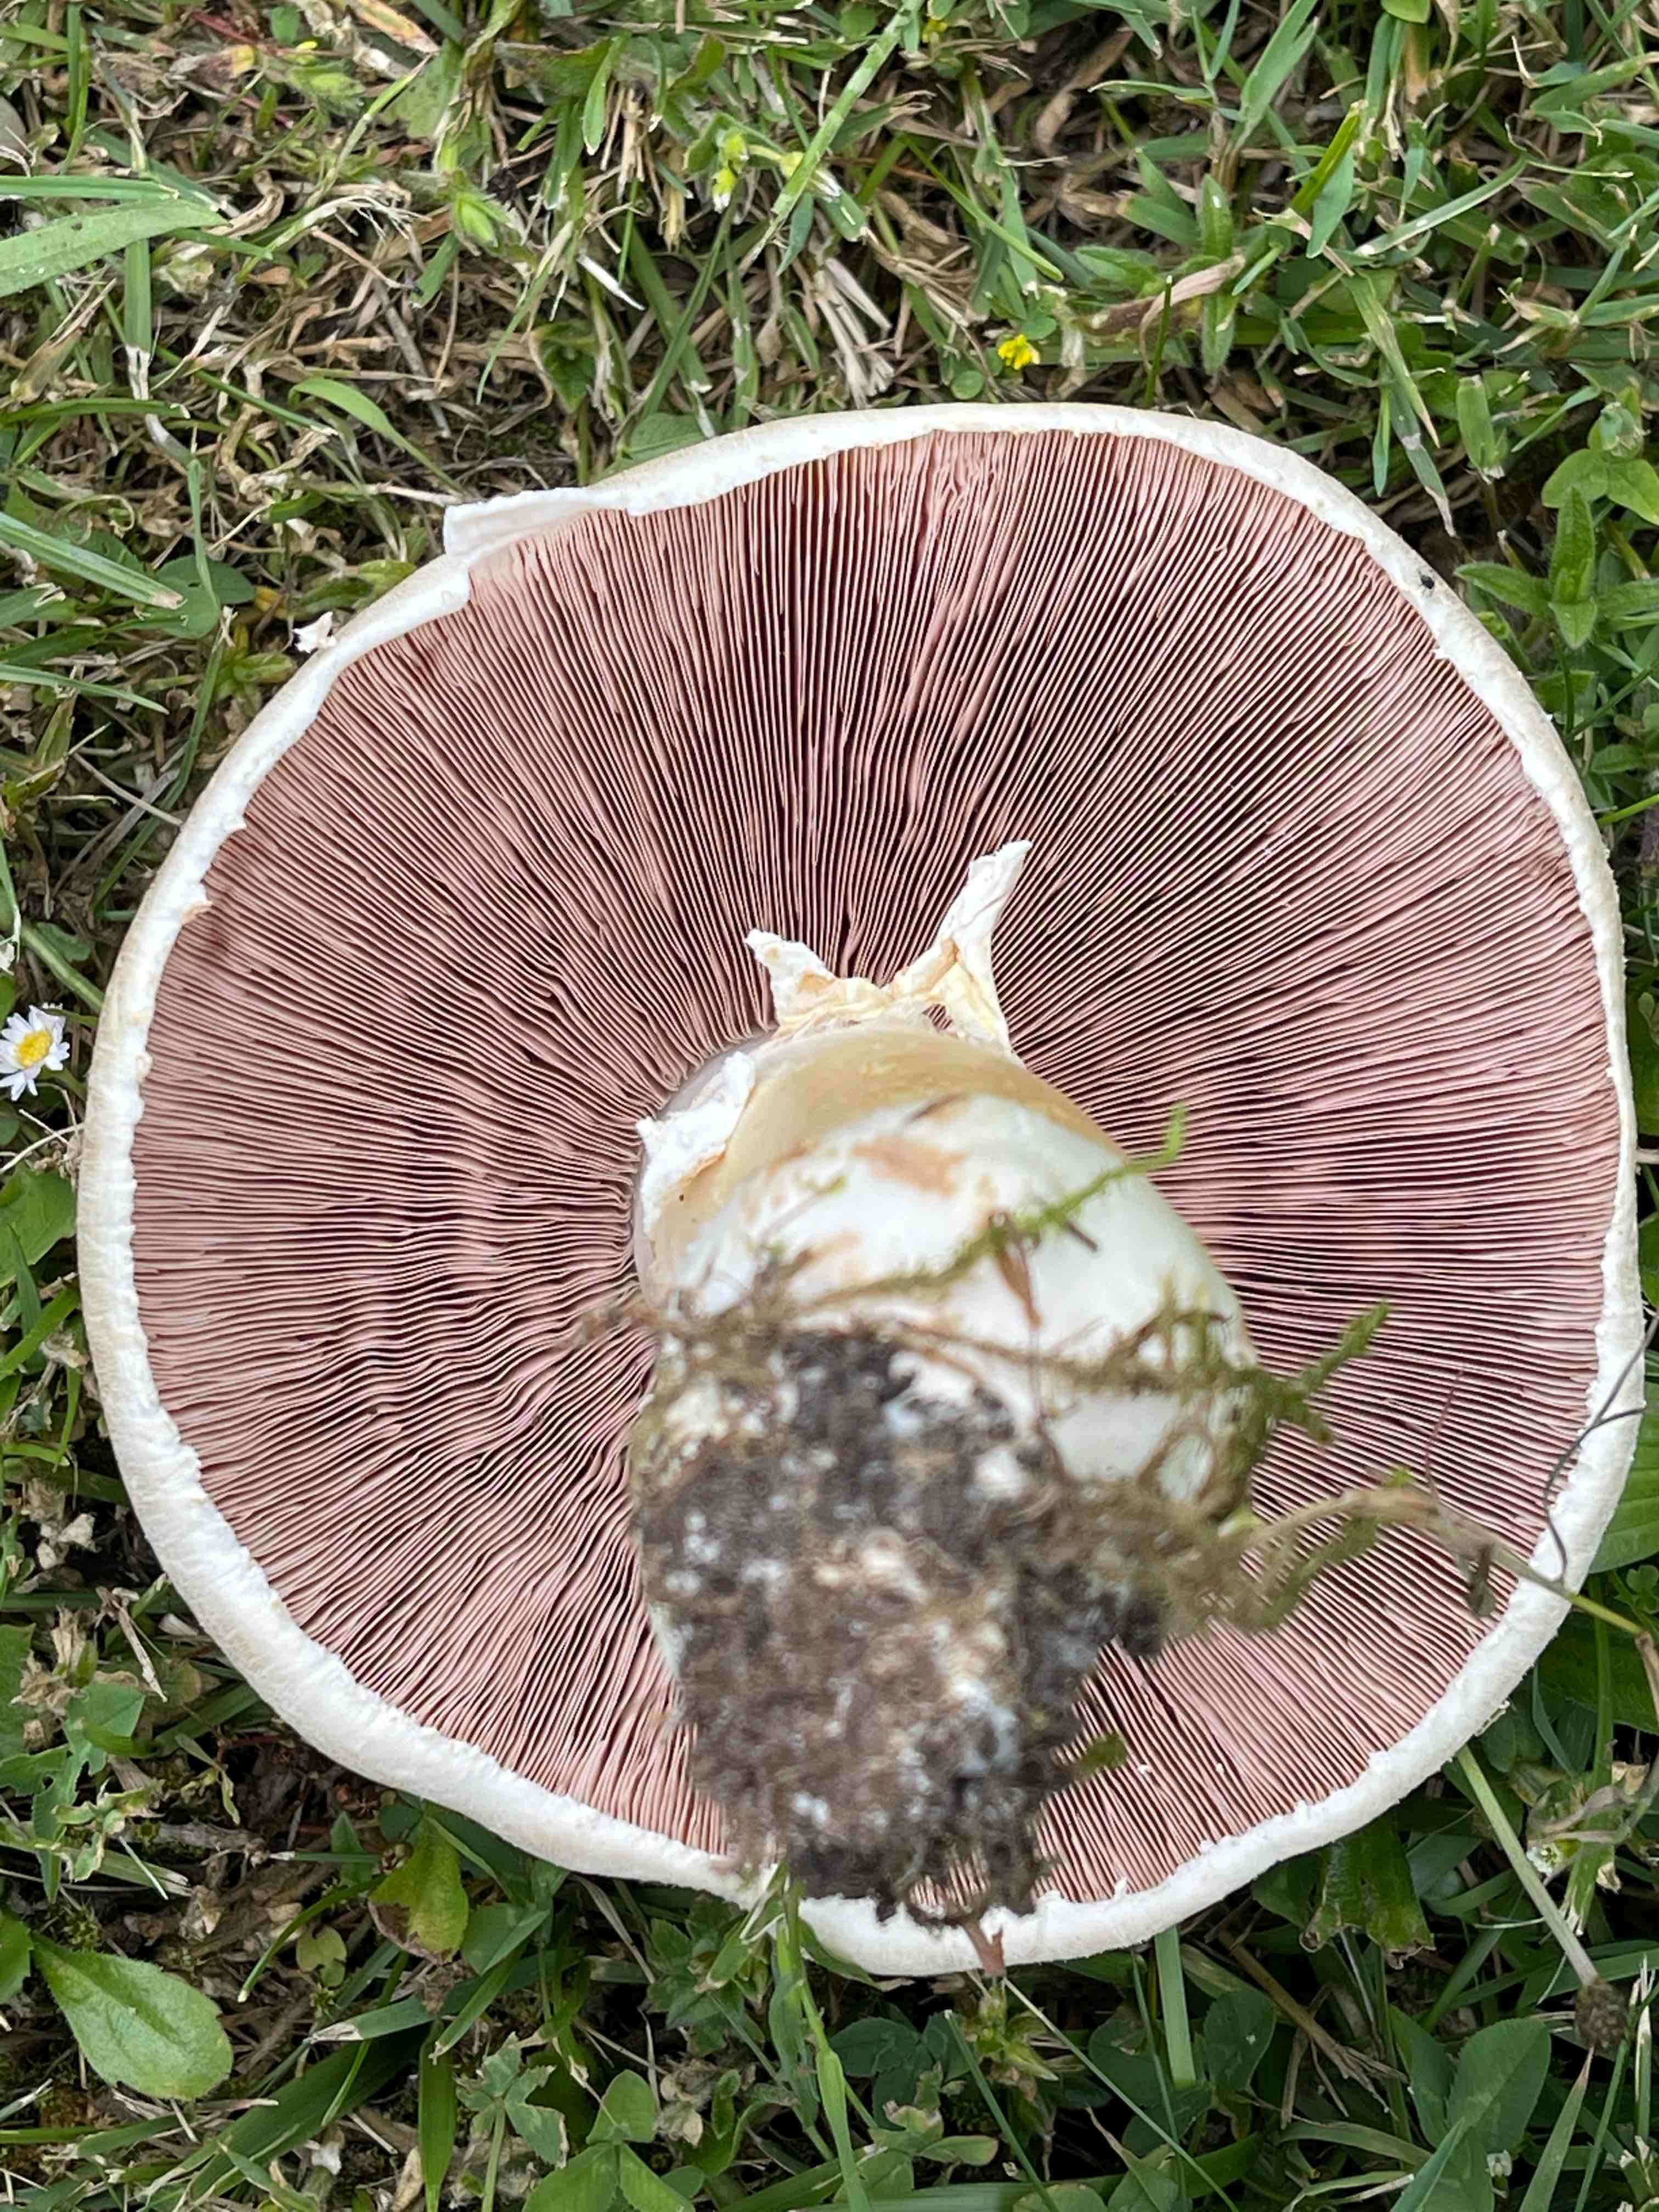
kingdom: Fungi
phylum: Basidiomycota
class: Agaricomycetes
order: Agaricales
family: Agaricaceae
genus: Agaricus
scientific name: Agaricus arvensis
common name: ager-champignon
